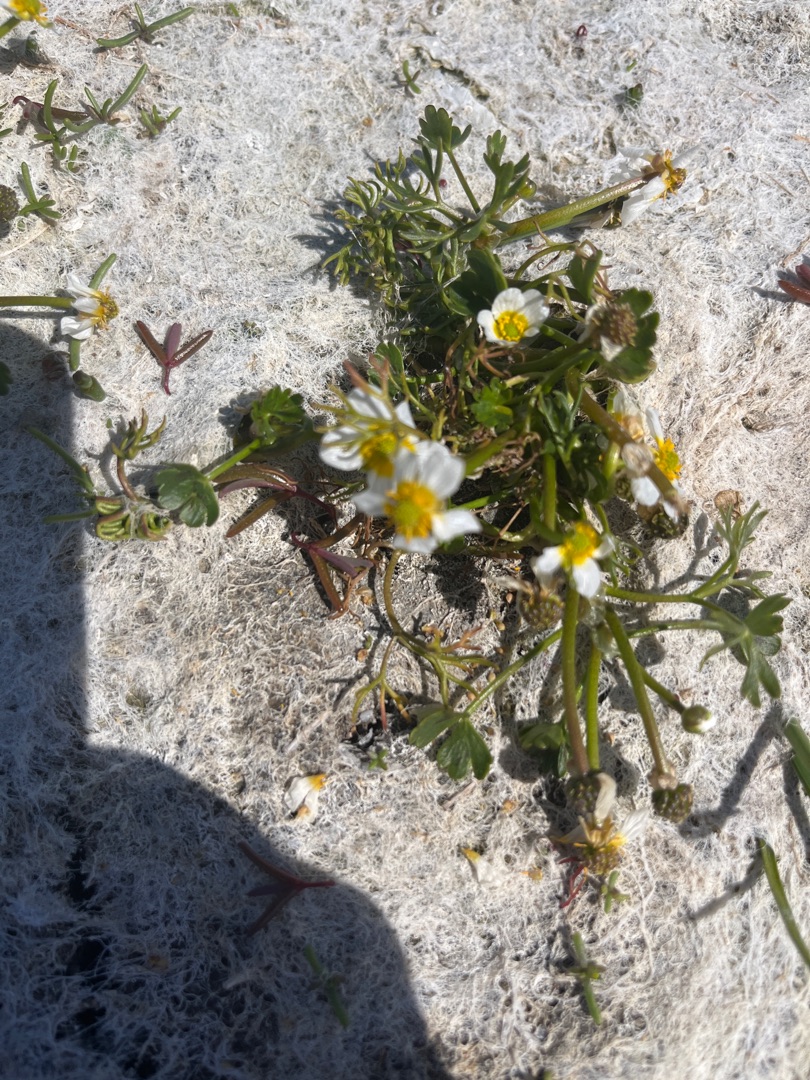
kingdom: Plantae
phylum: Tracheophyta
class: Magnoliopsida
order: Ranunculales
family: Ranunculaceae
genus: Ranunculus
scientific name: Ranunculus peltatus
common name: Strand-vandranunkel
